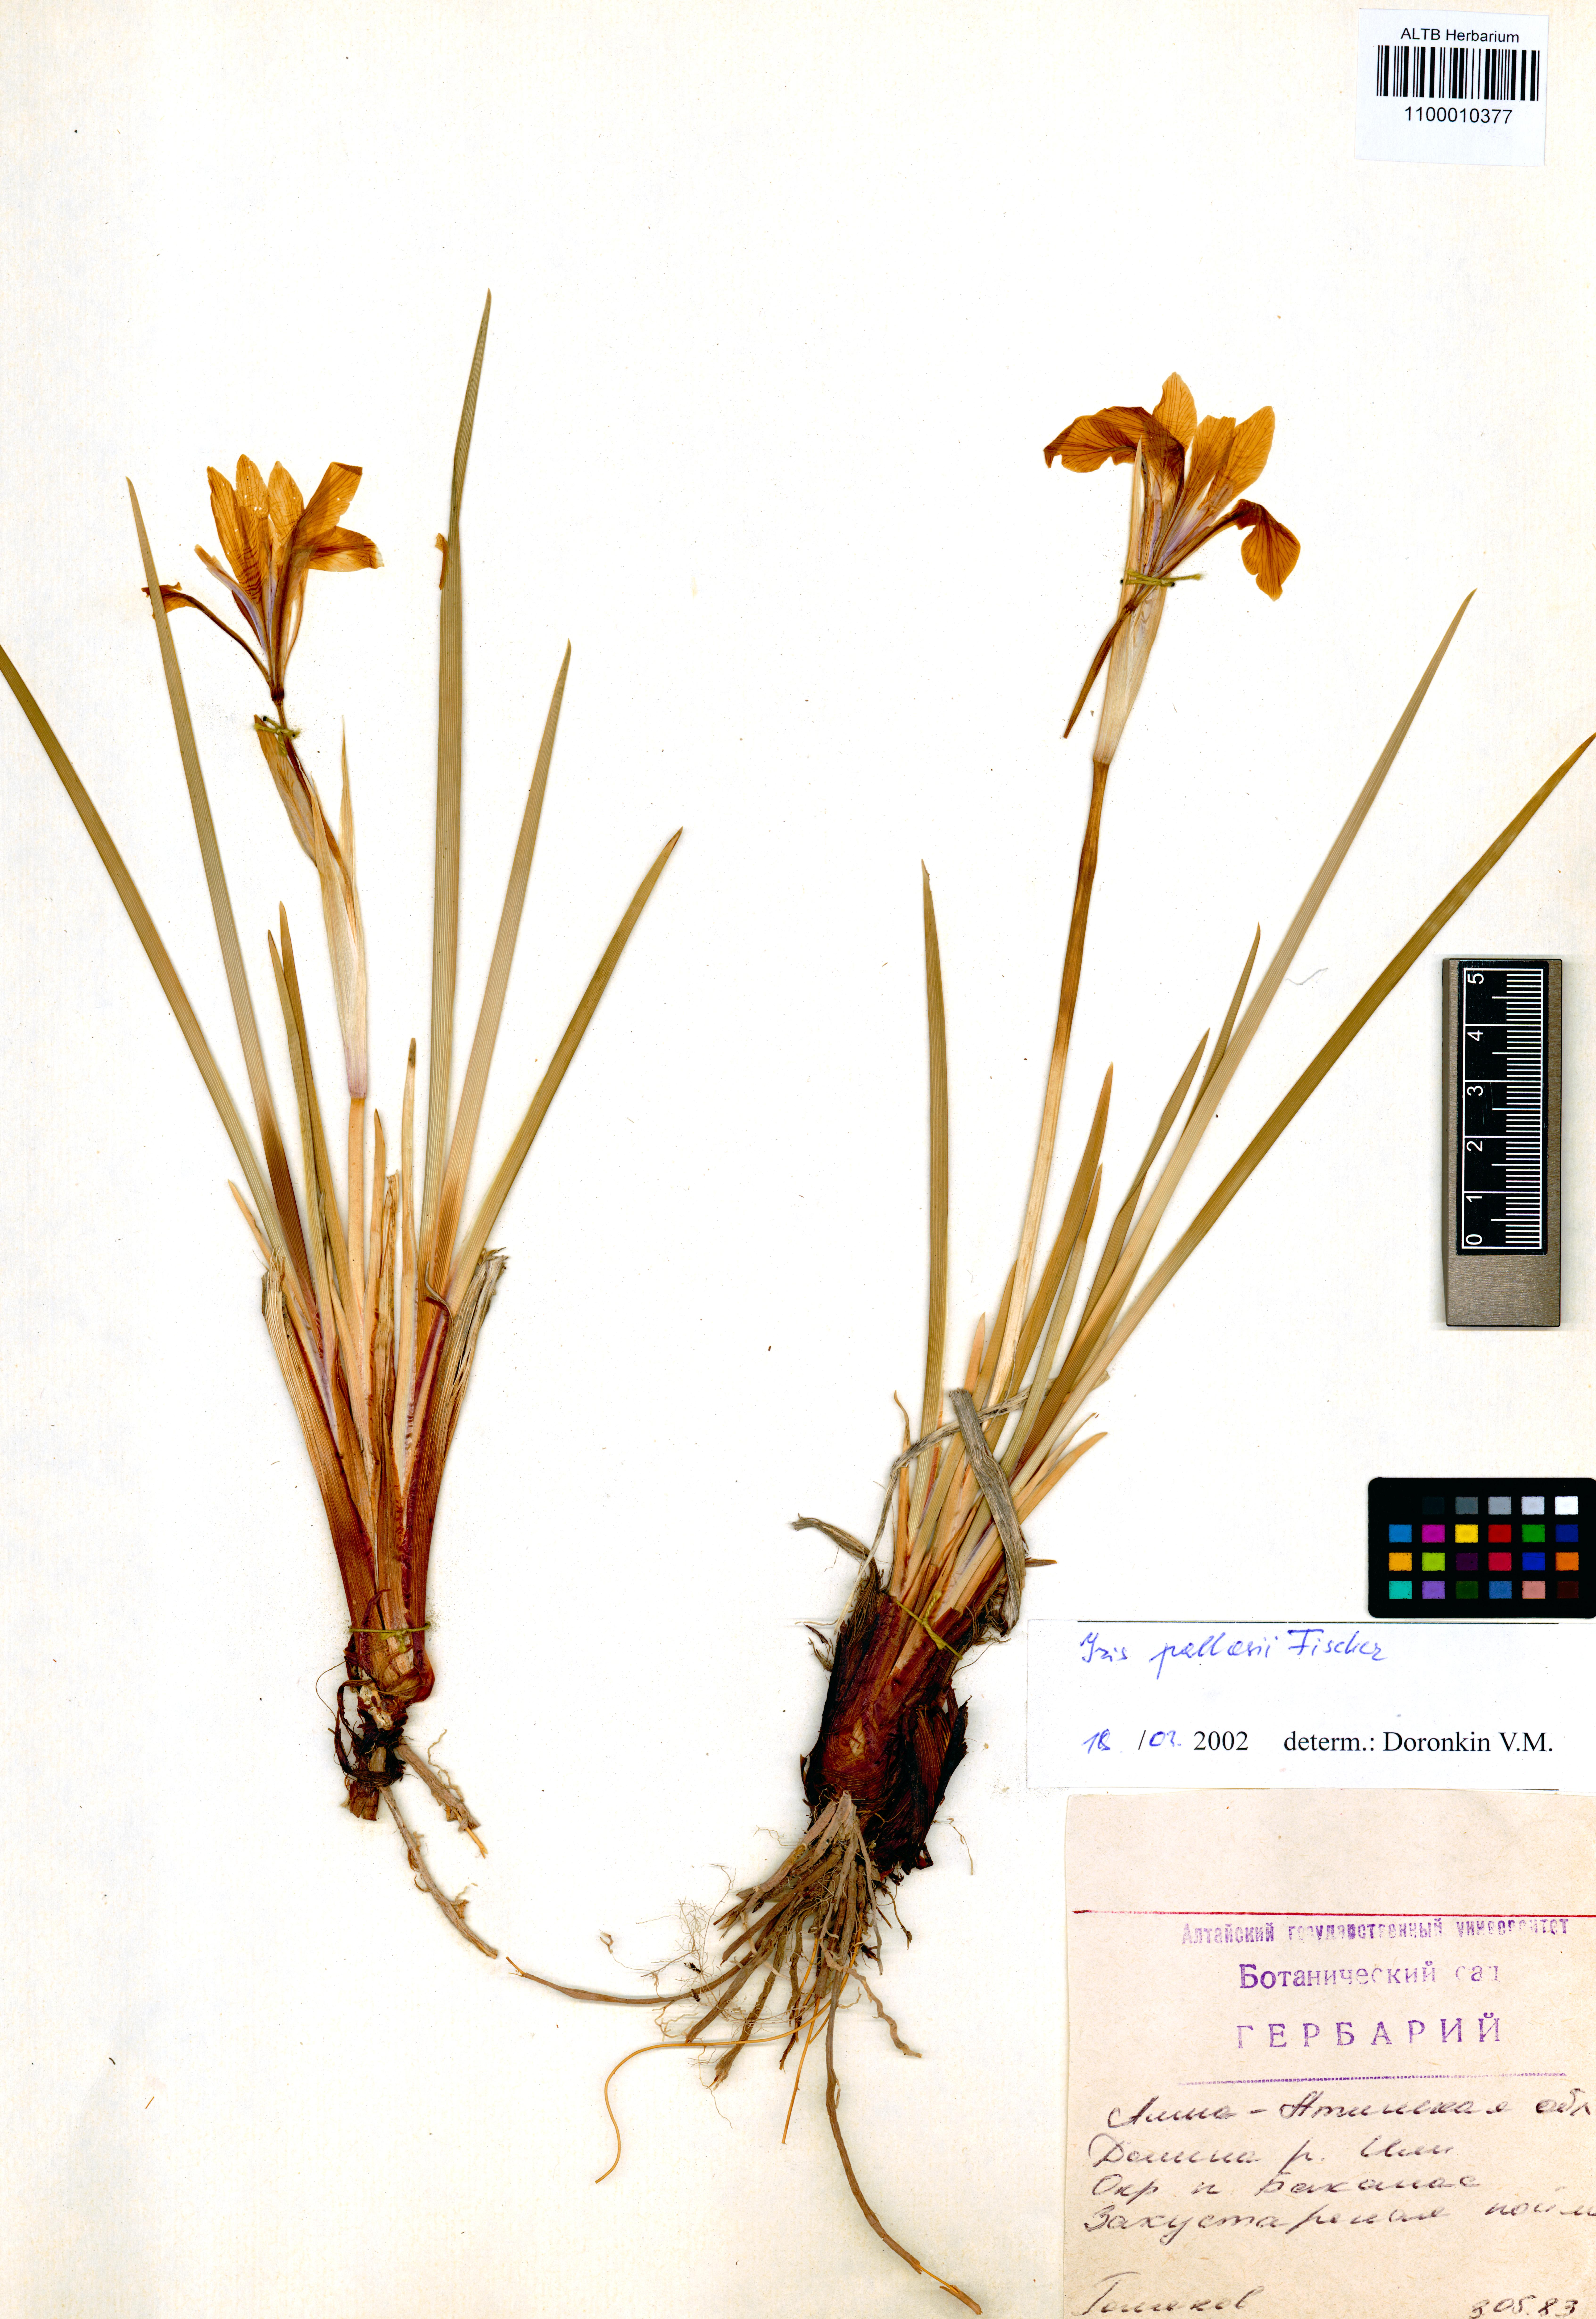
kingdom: Plantae
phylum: Tracheophyta
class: Liliopsida
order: Asparagales
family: Iridaceae
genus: Iris
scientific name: Iris lactea
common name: White-flower chinese iris
